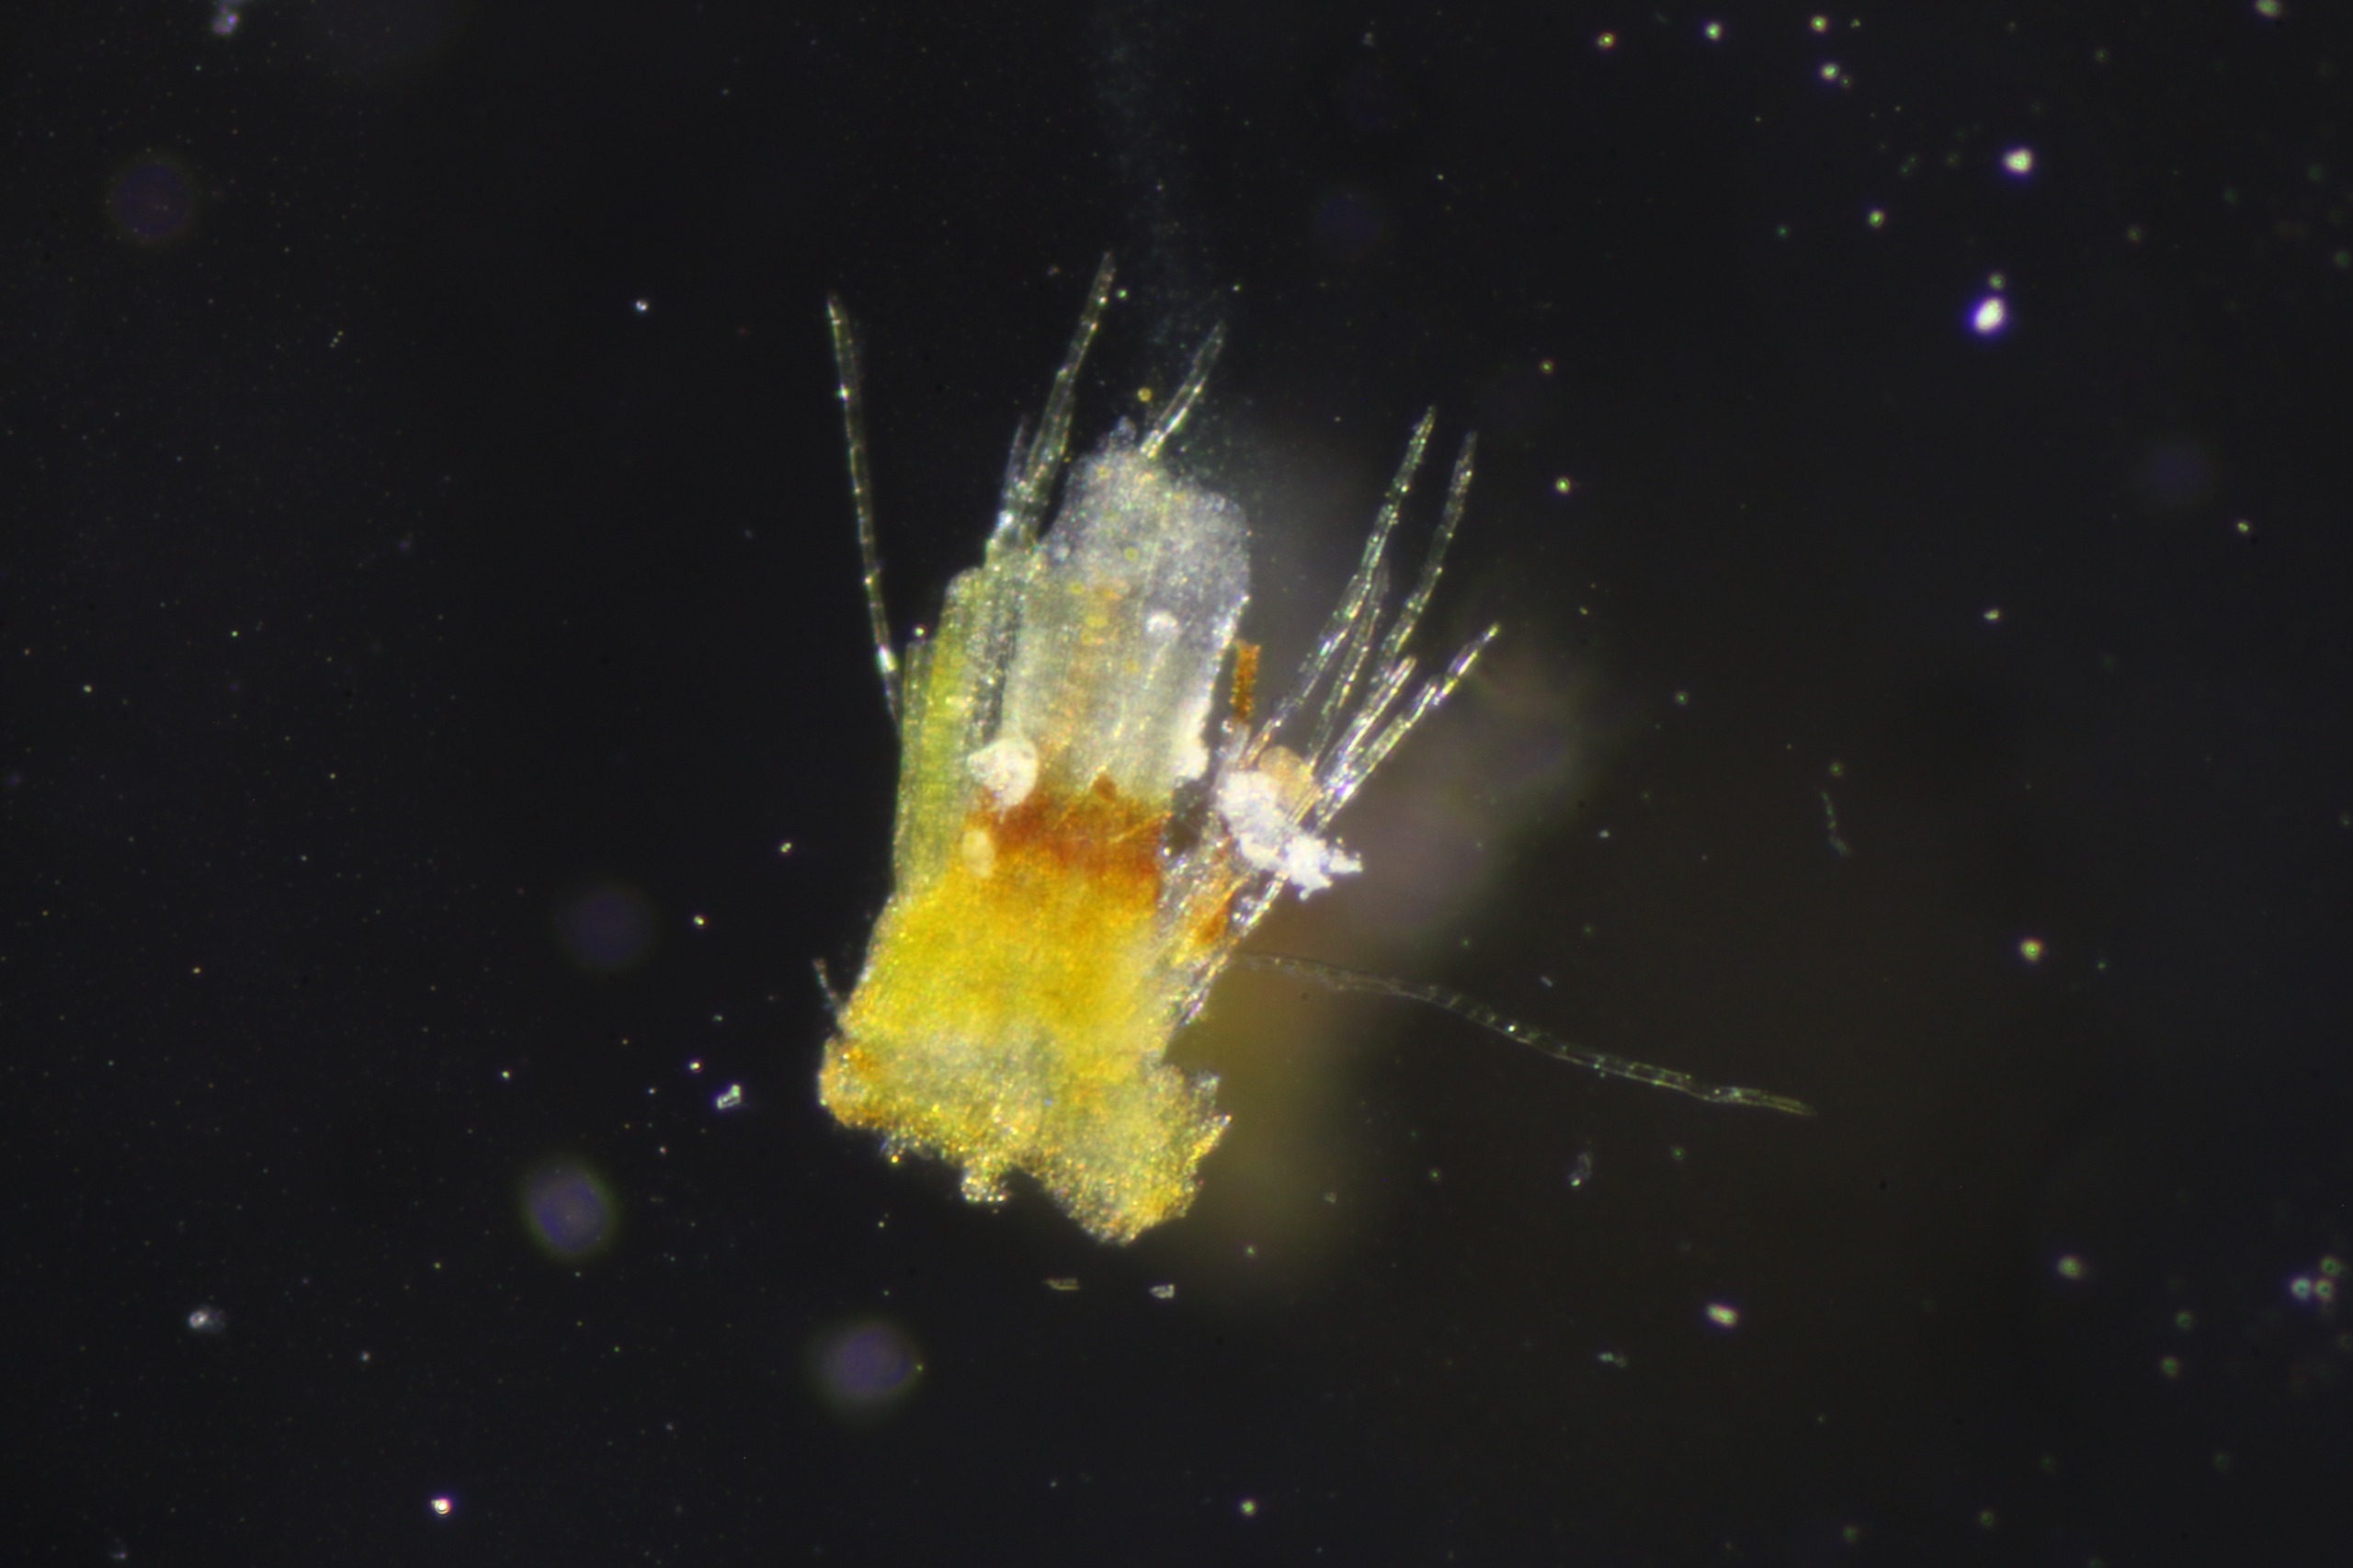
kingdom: Plantae
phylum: Bryophyta
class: Bryopsida
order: Orthotrichales
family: Orthotrichaceae
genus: Orthotrichum
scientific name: Orthotrichum stramineum
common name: Strågul furehætte
